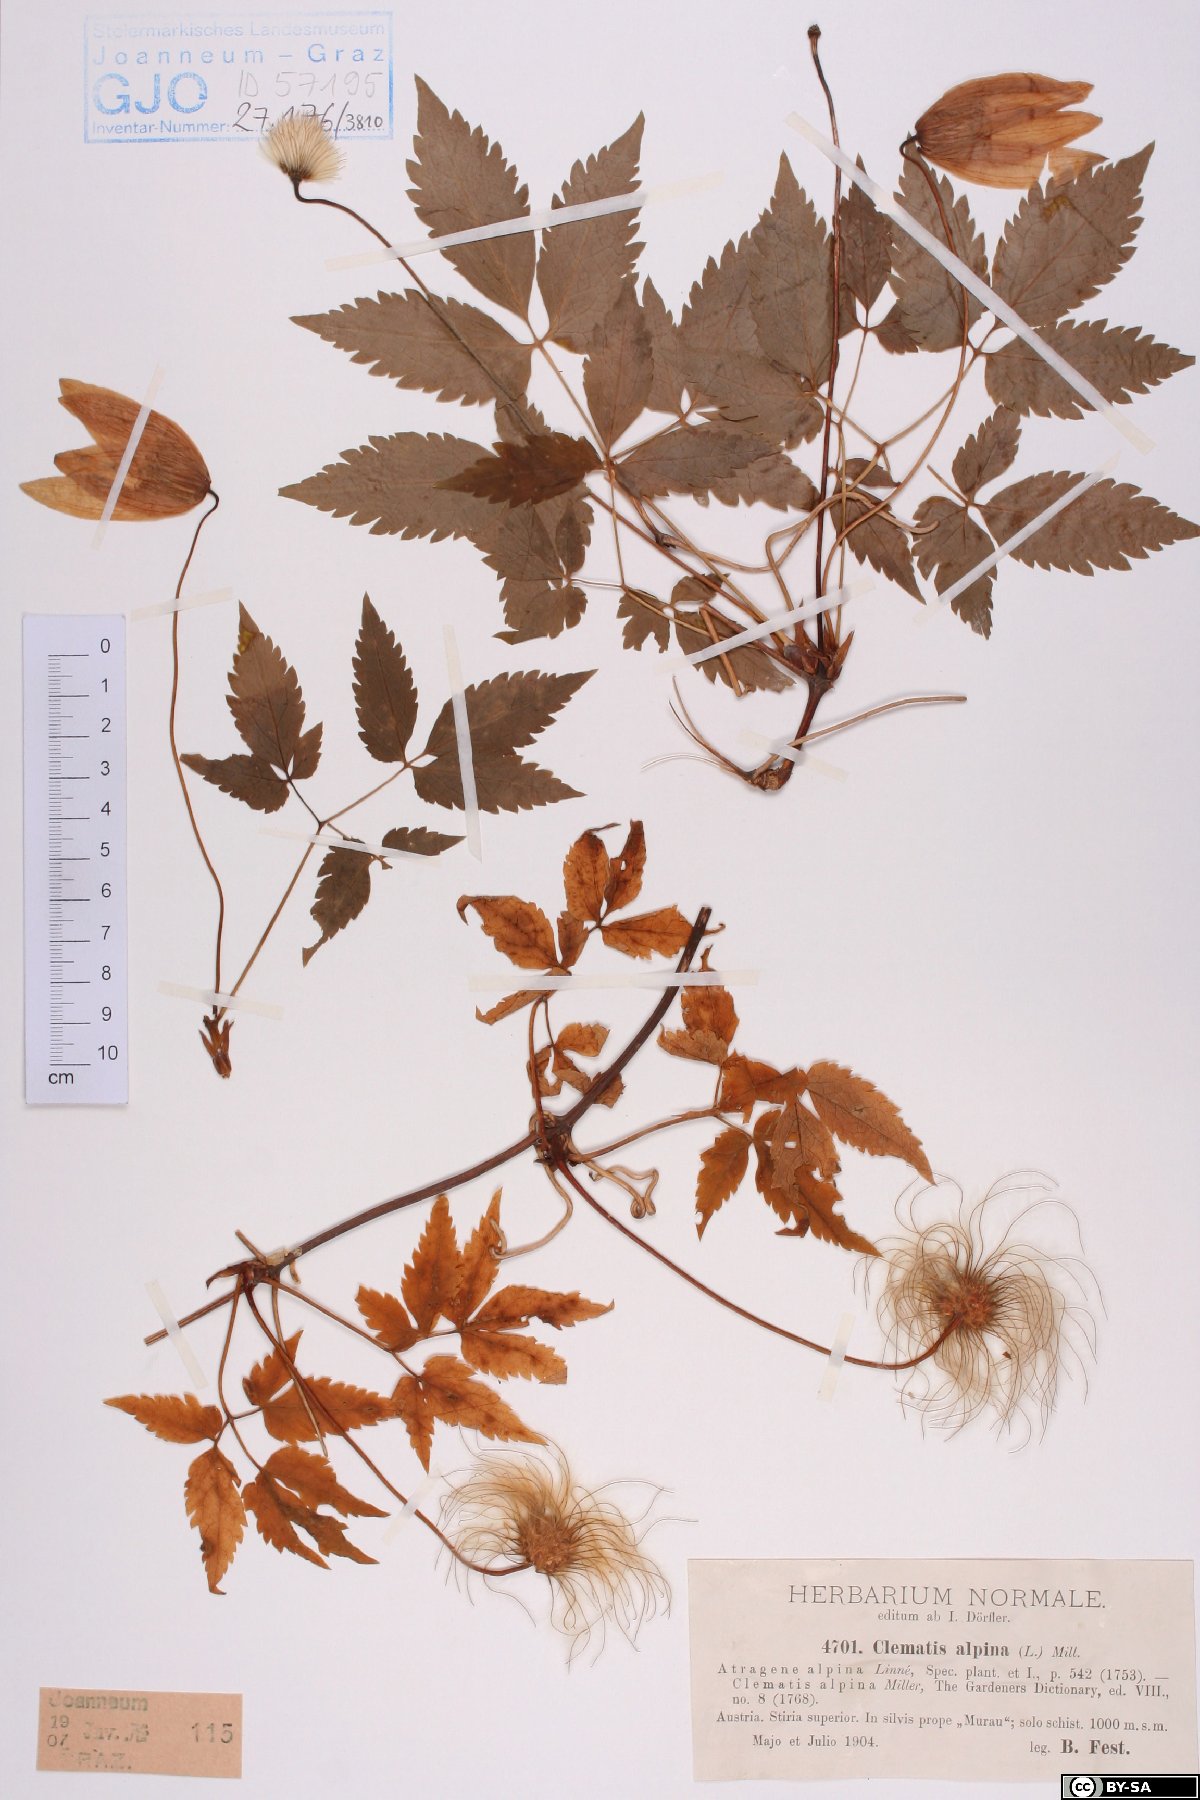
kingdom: Plantae
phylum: Tracheophyta
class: Magnoliopsida
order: Ranunculales
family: Ranunculaceae
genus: Clematis
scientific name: Clematis alpina
